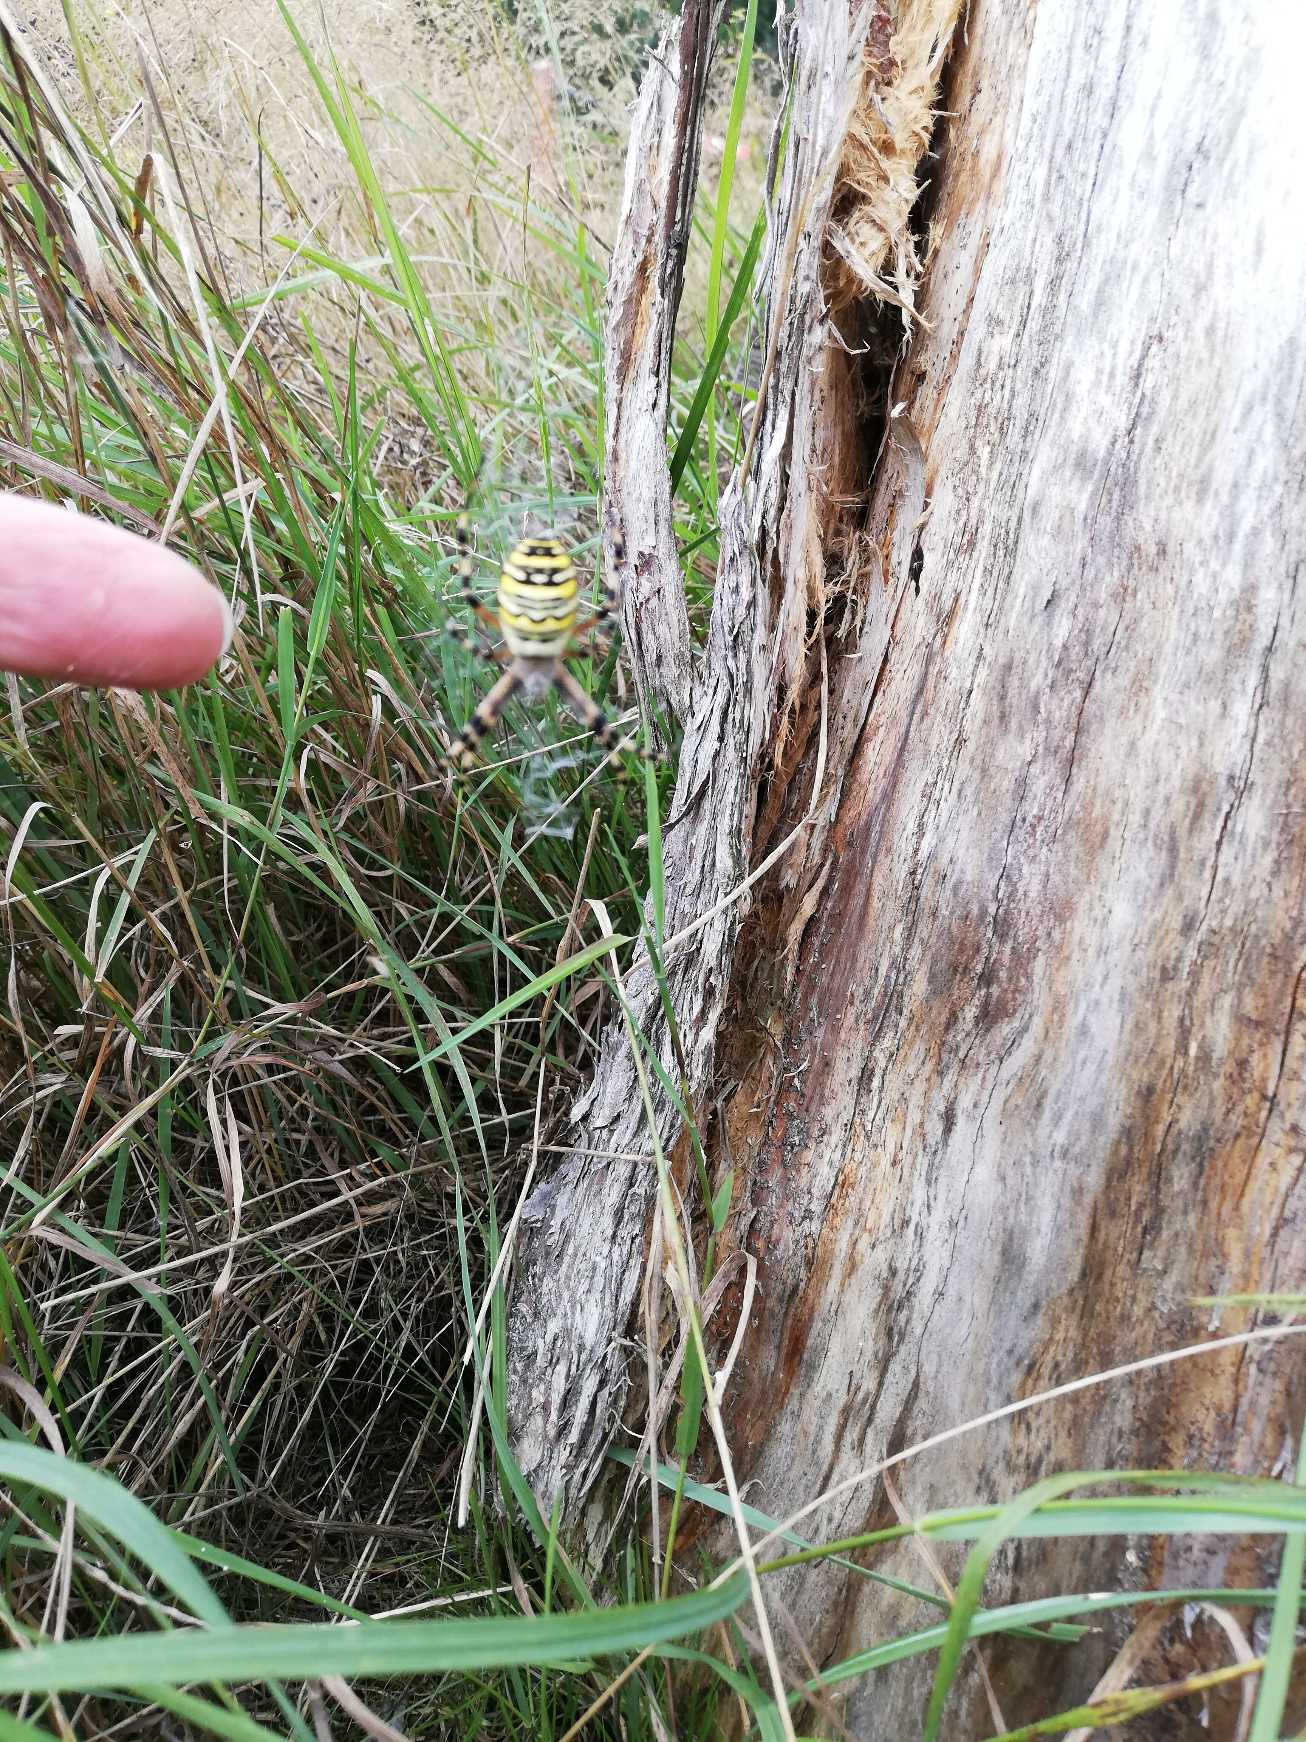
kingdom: Animalia
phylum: Arthropoda
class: Arachnida
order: Araneae
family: Araneidae
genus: Argiope
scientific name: Argiope bruennichi
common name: Hvepseedderkop
